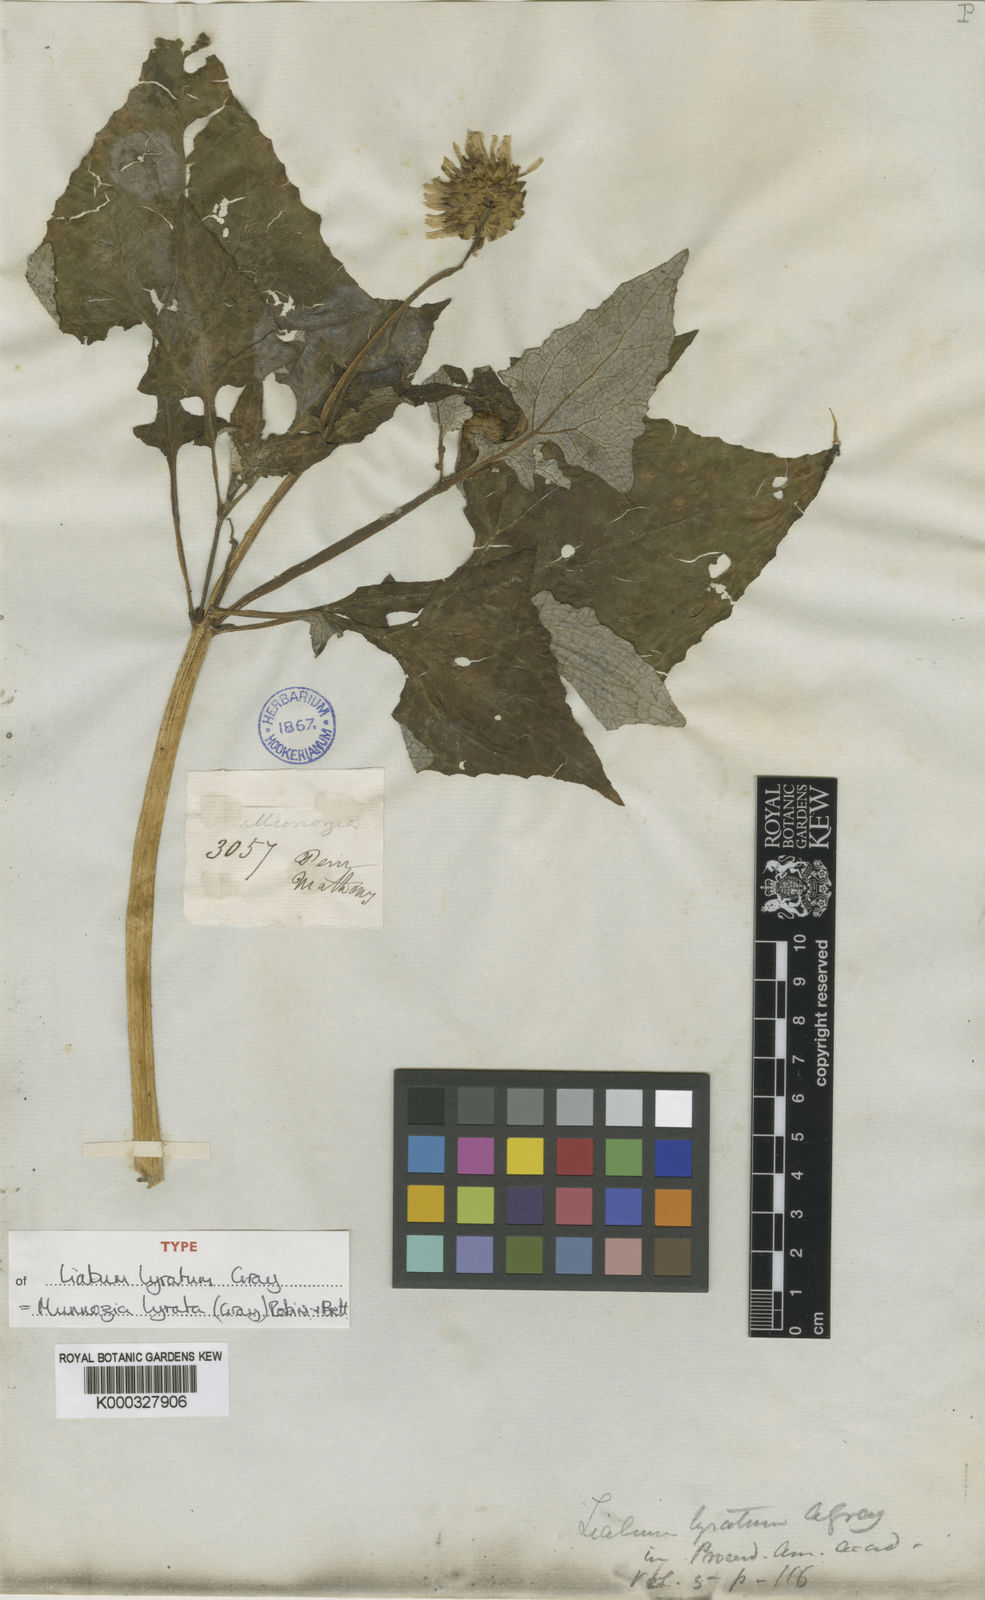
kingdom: Plantae
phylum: Tracheophyta
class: Magnoliopsida
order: Asterales
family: Asteraceae
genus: Munnozia
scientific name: Munnozia lyrata
